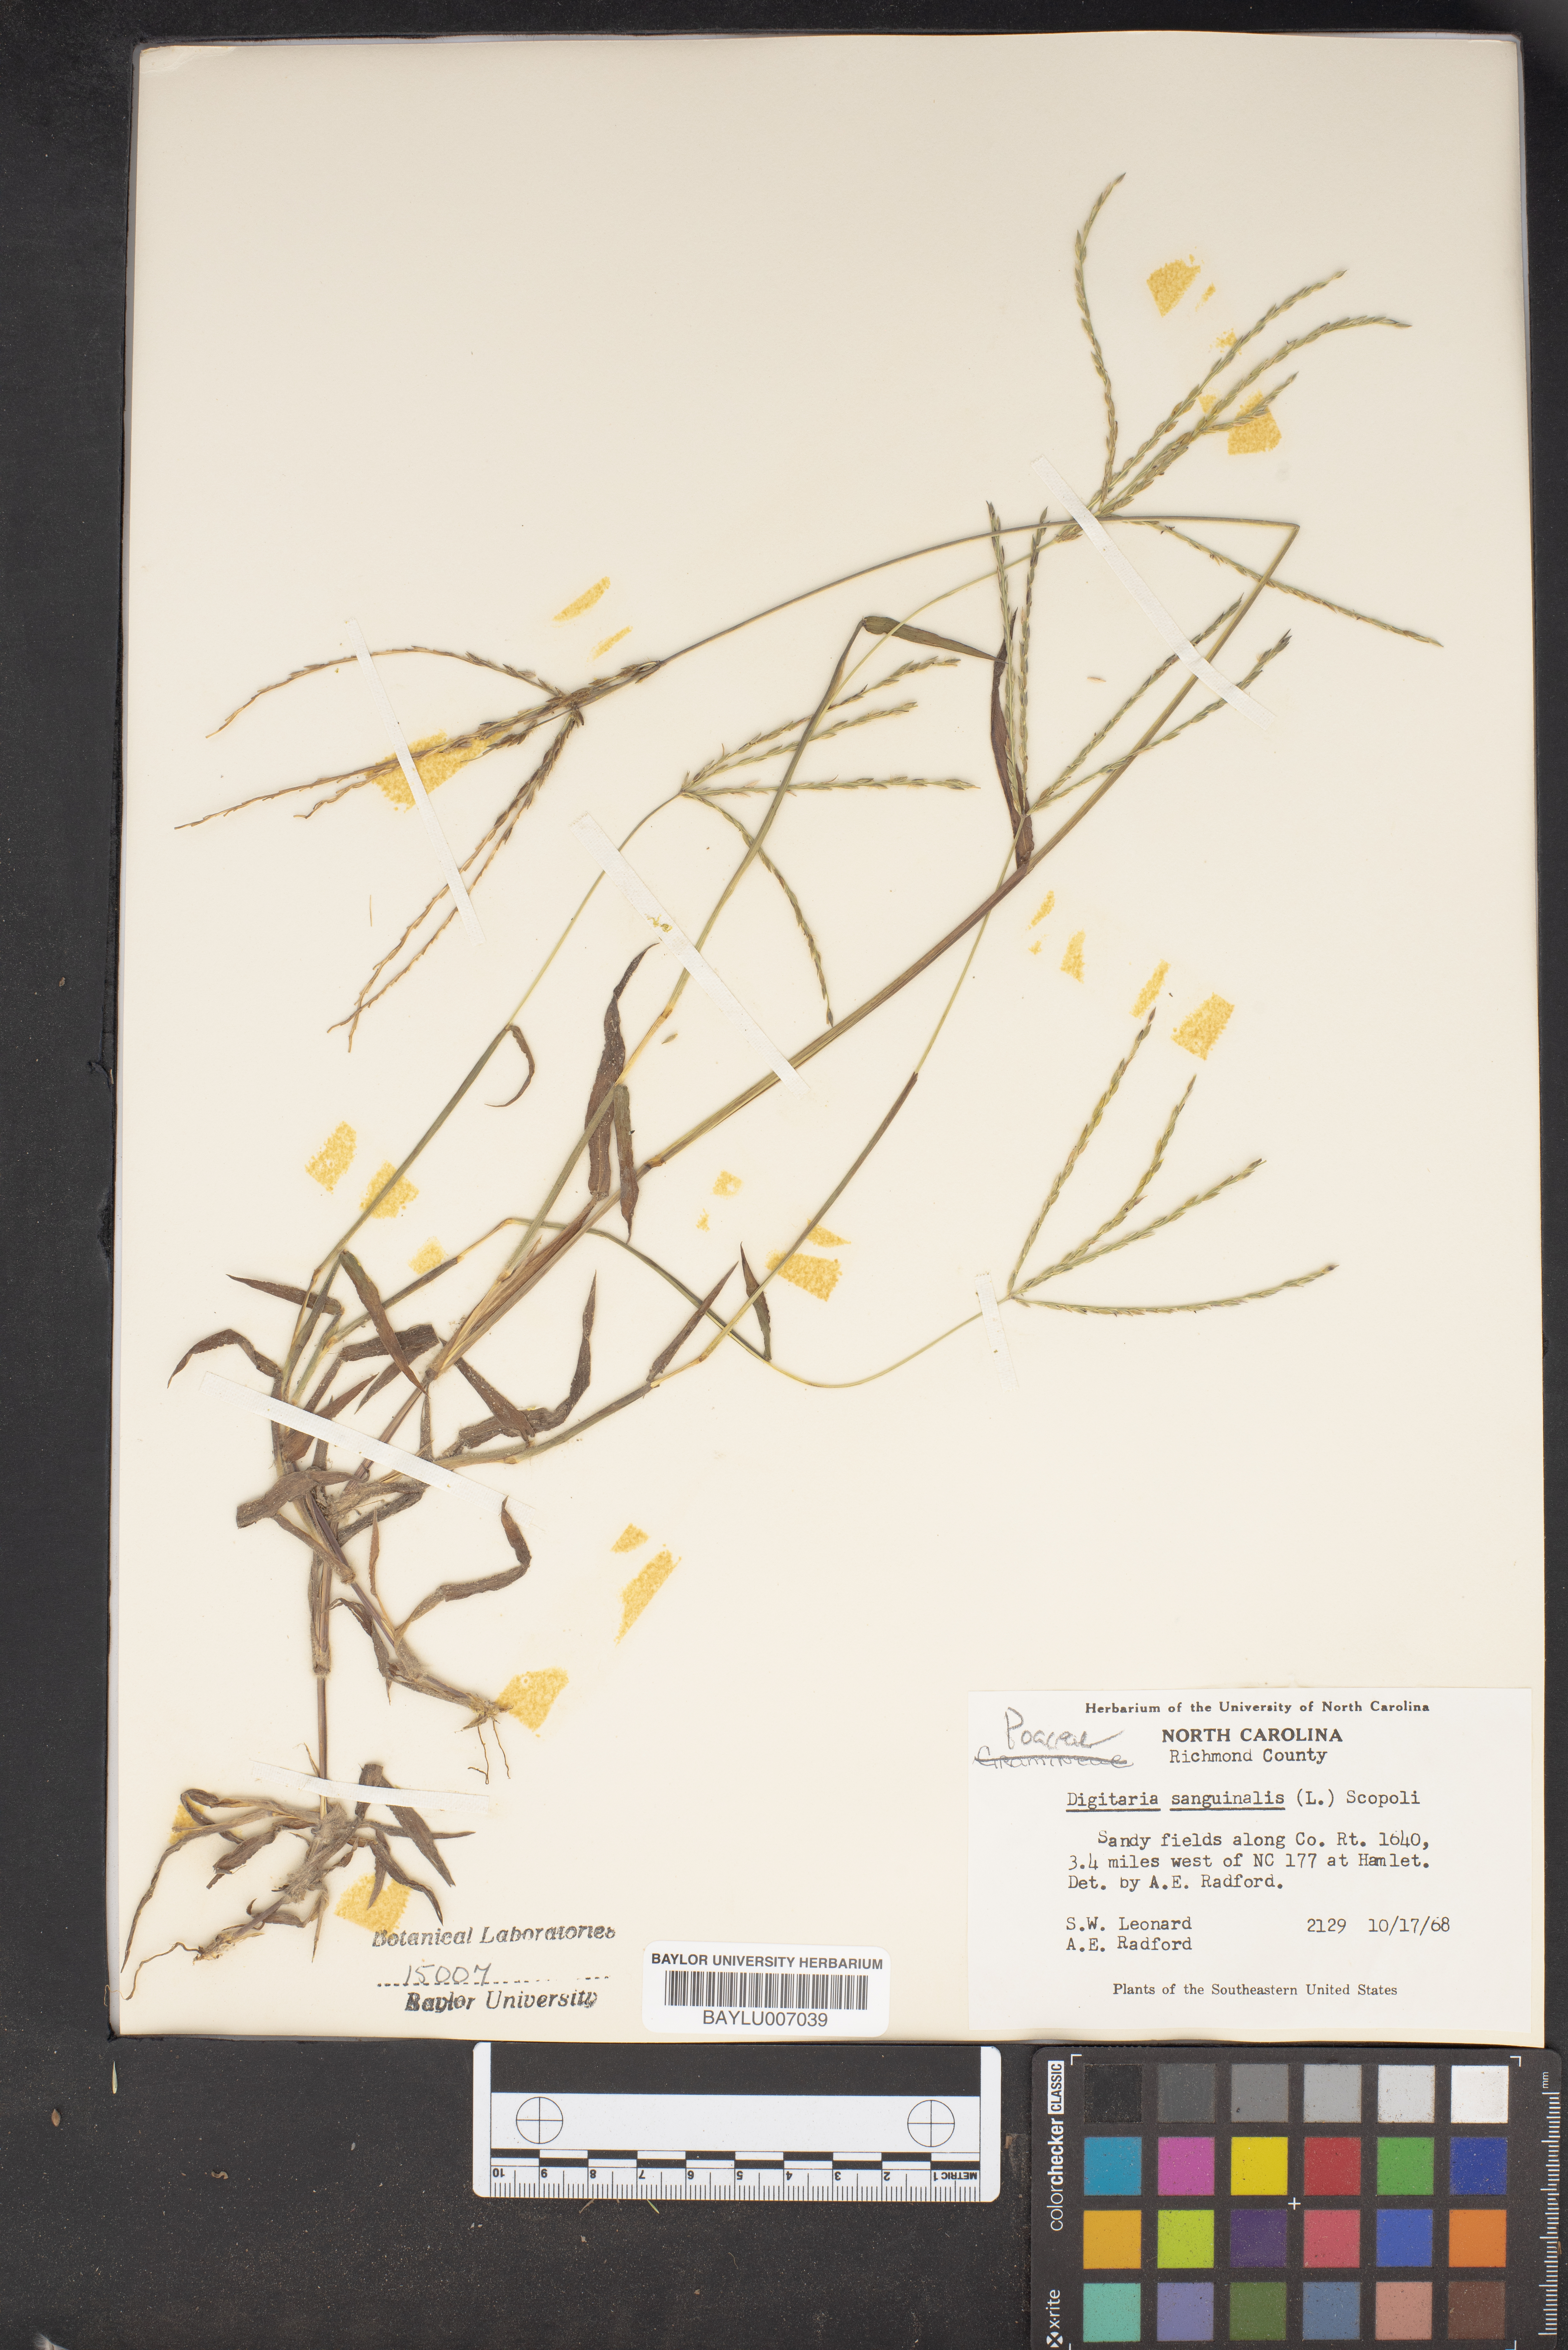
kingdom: Plantae
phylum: Tracheophyta
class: Liliopsida
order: Poales
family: Poaceae
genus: Digitaria
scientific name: Digitaria sanguinalis
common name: Hairy crabgrass
